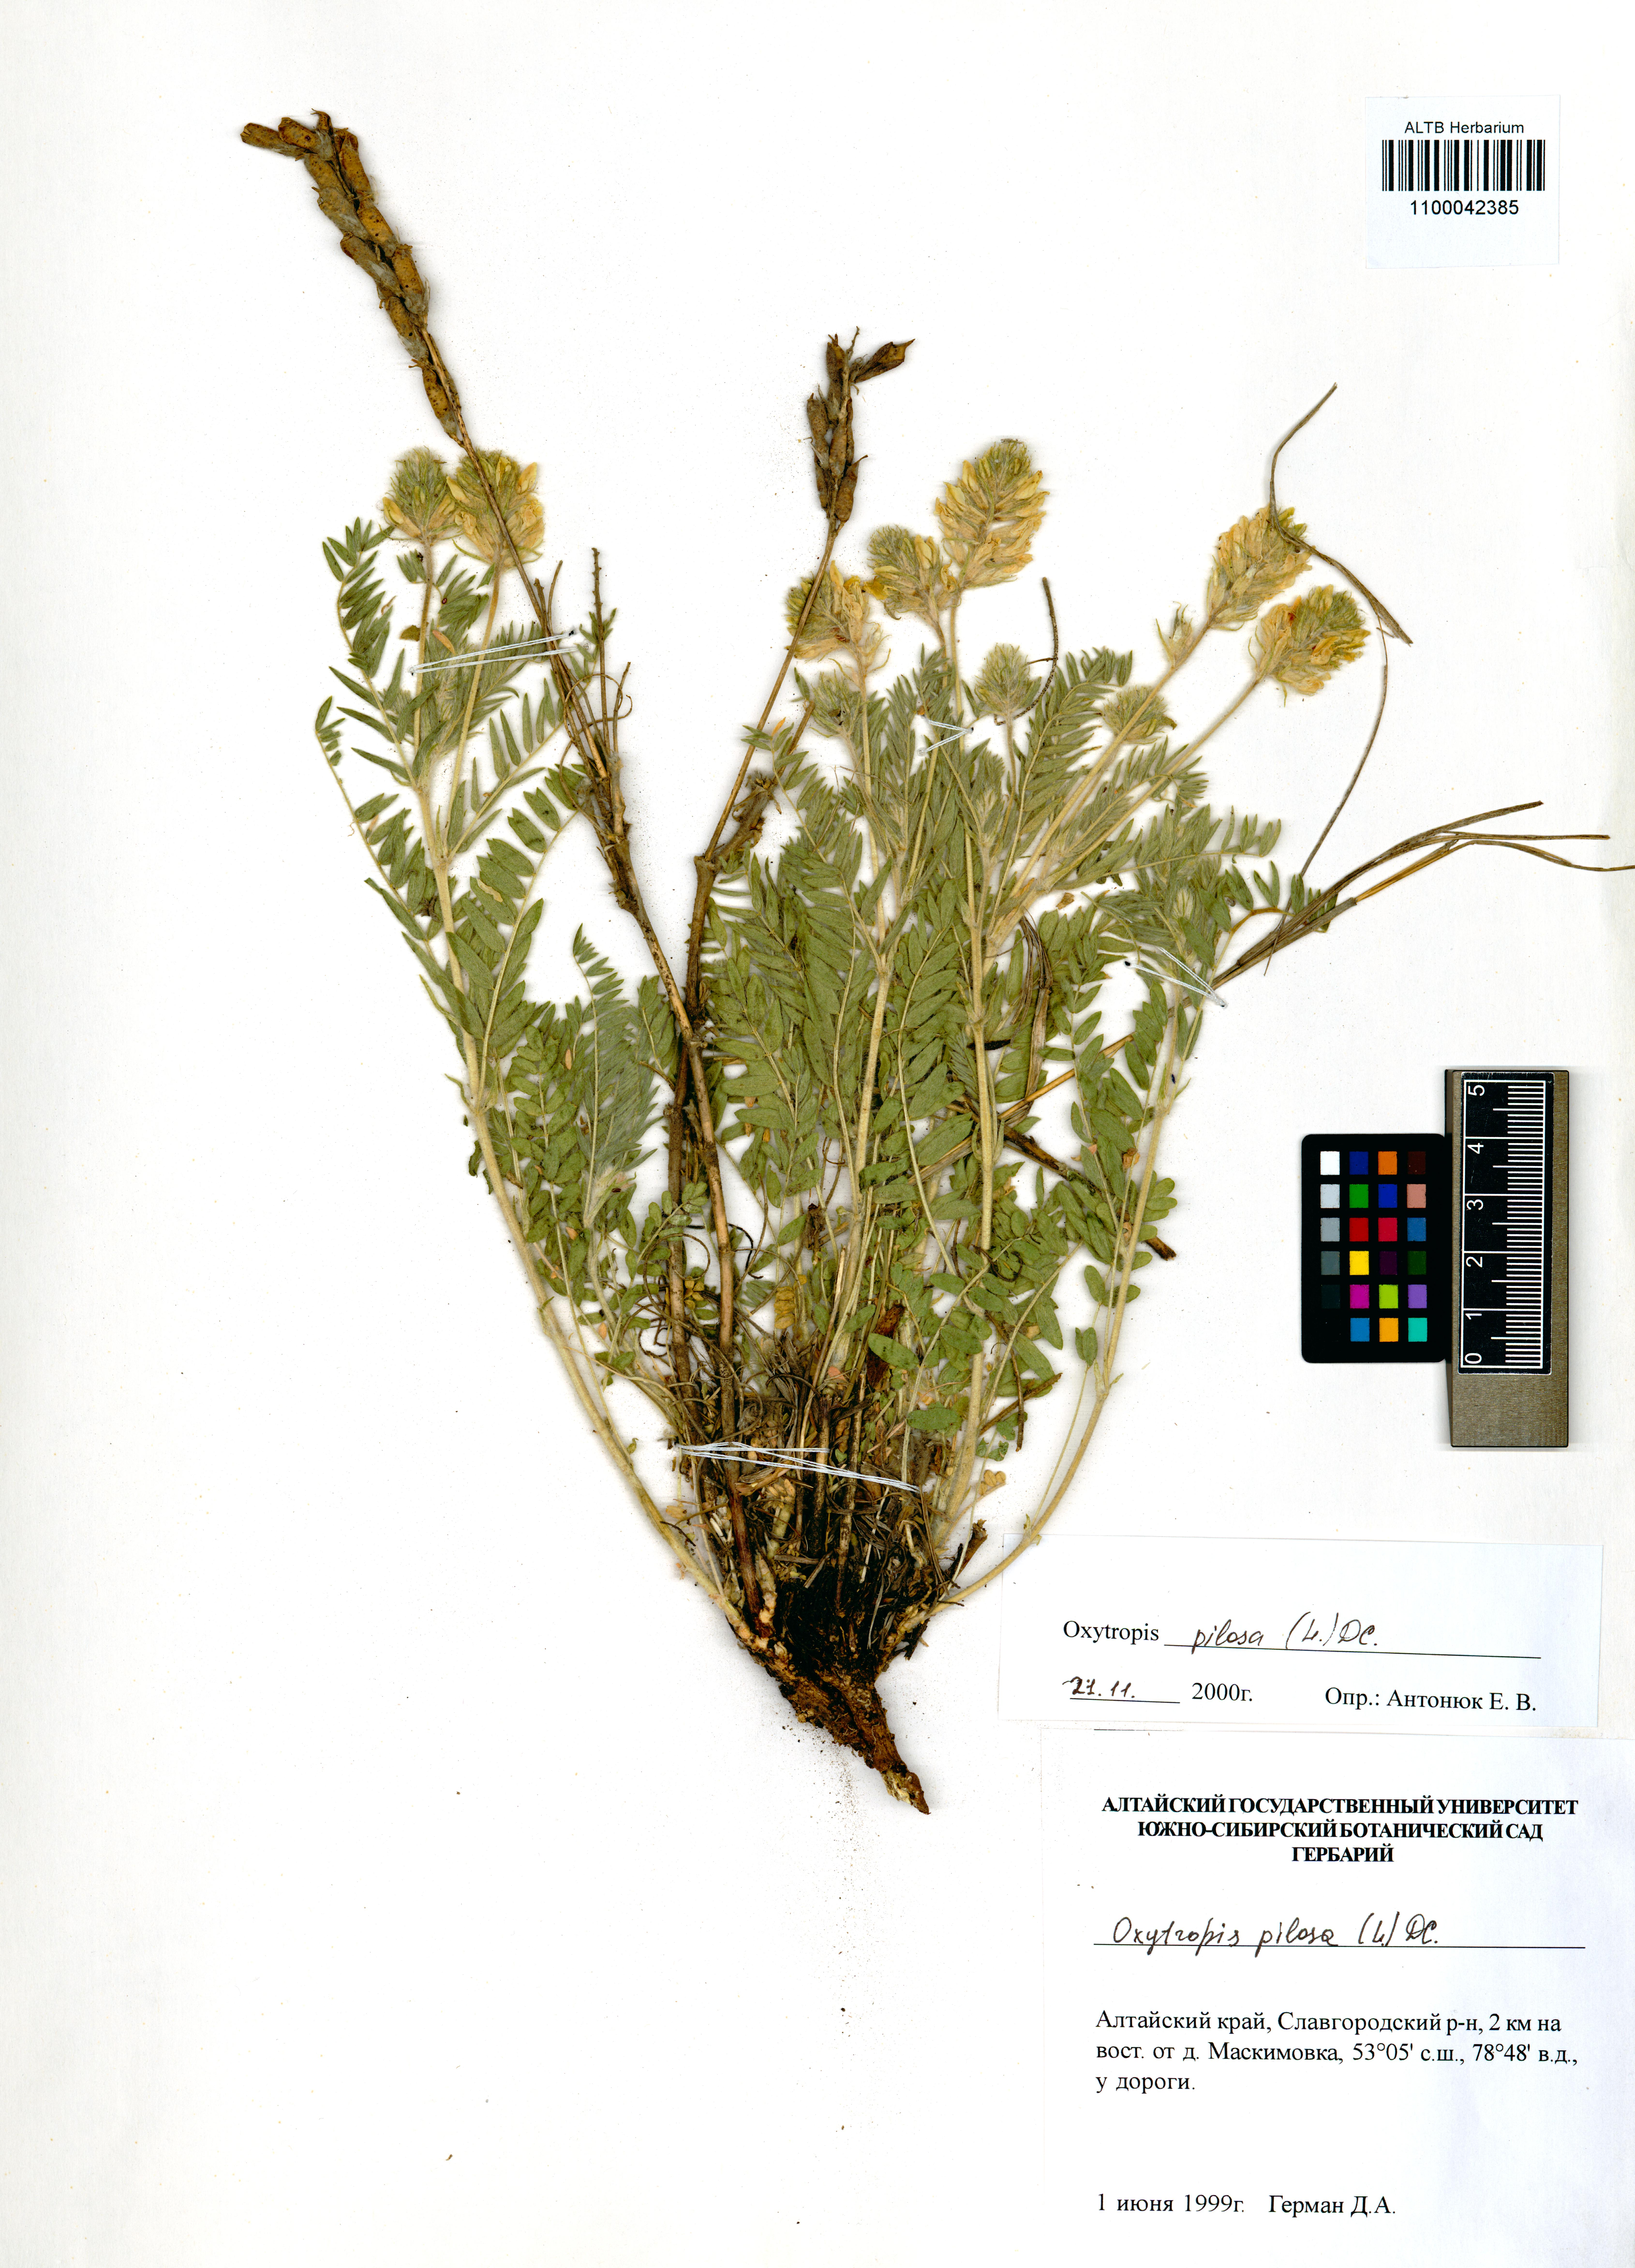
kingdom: Plantae
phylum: Tracheophyta
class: Magnoliopsida
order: Fabales
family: Fabaceae
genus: Oxytropis
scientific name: Oxytropis pilosa
